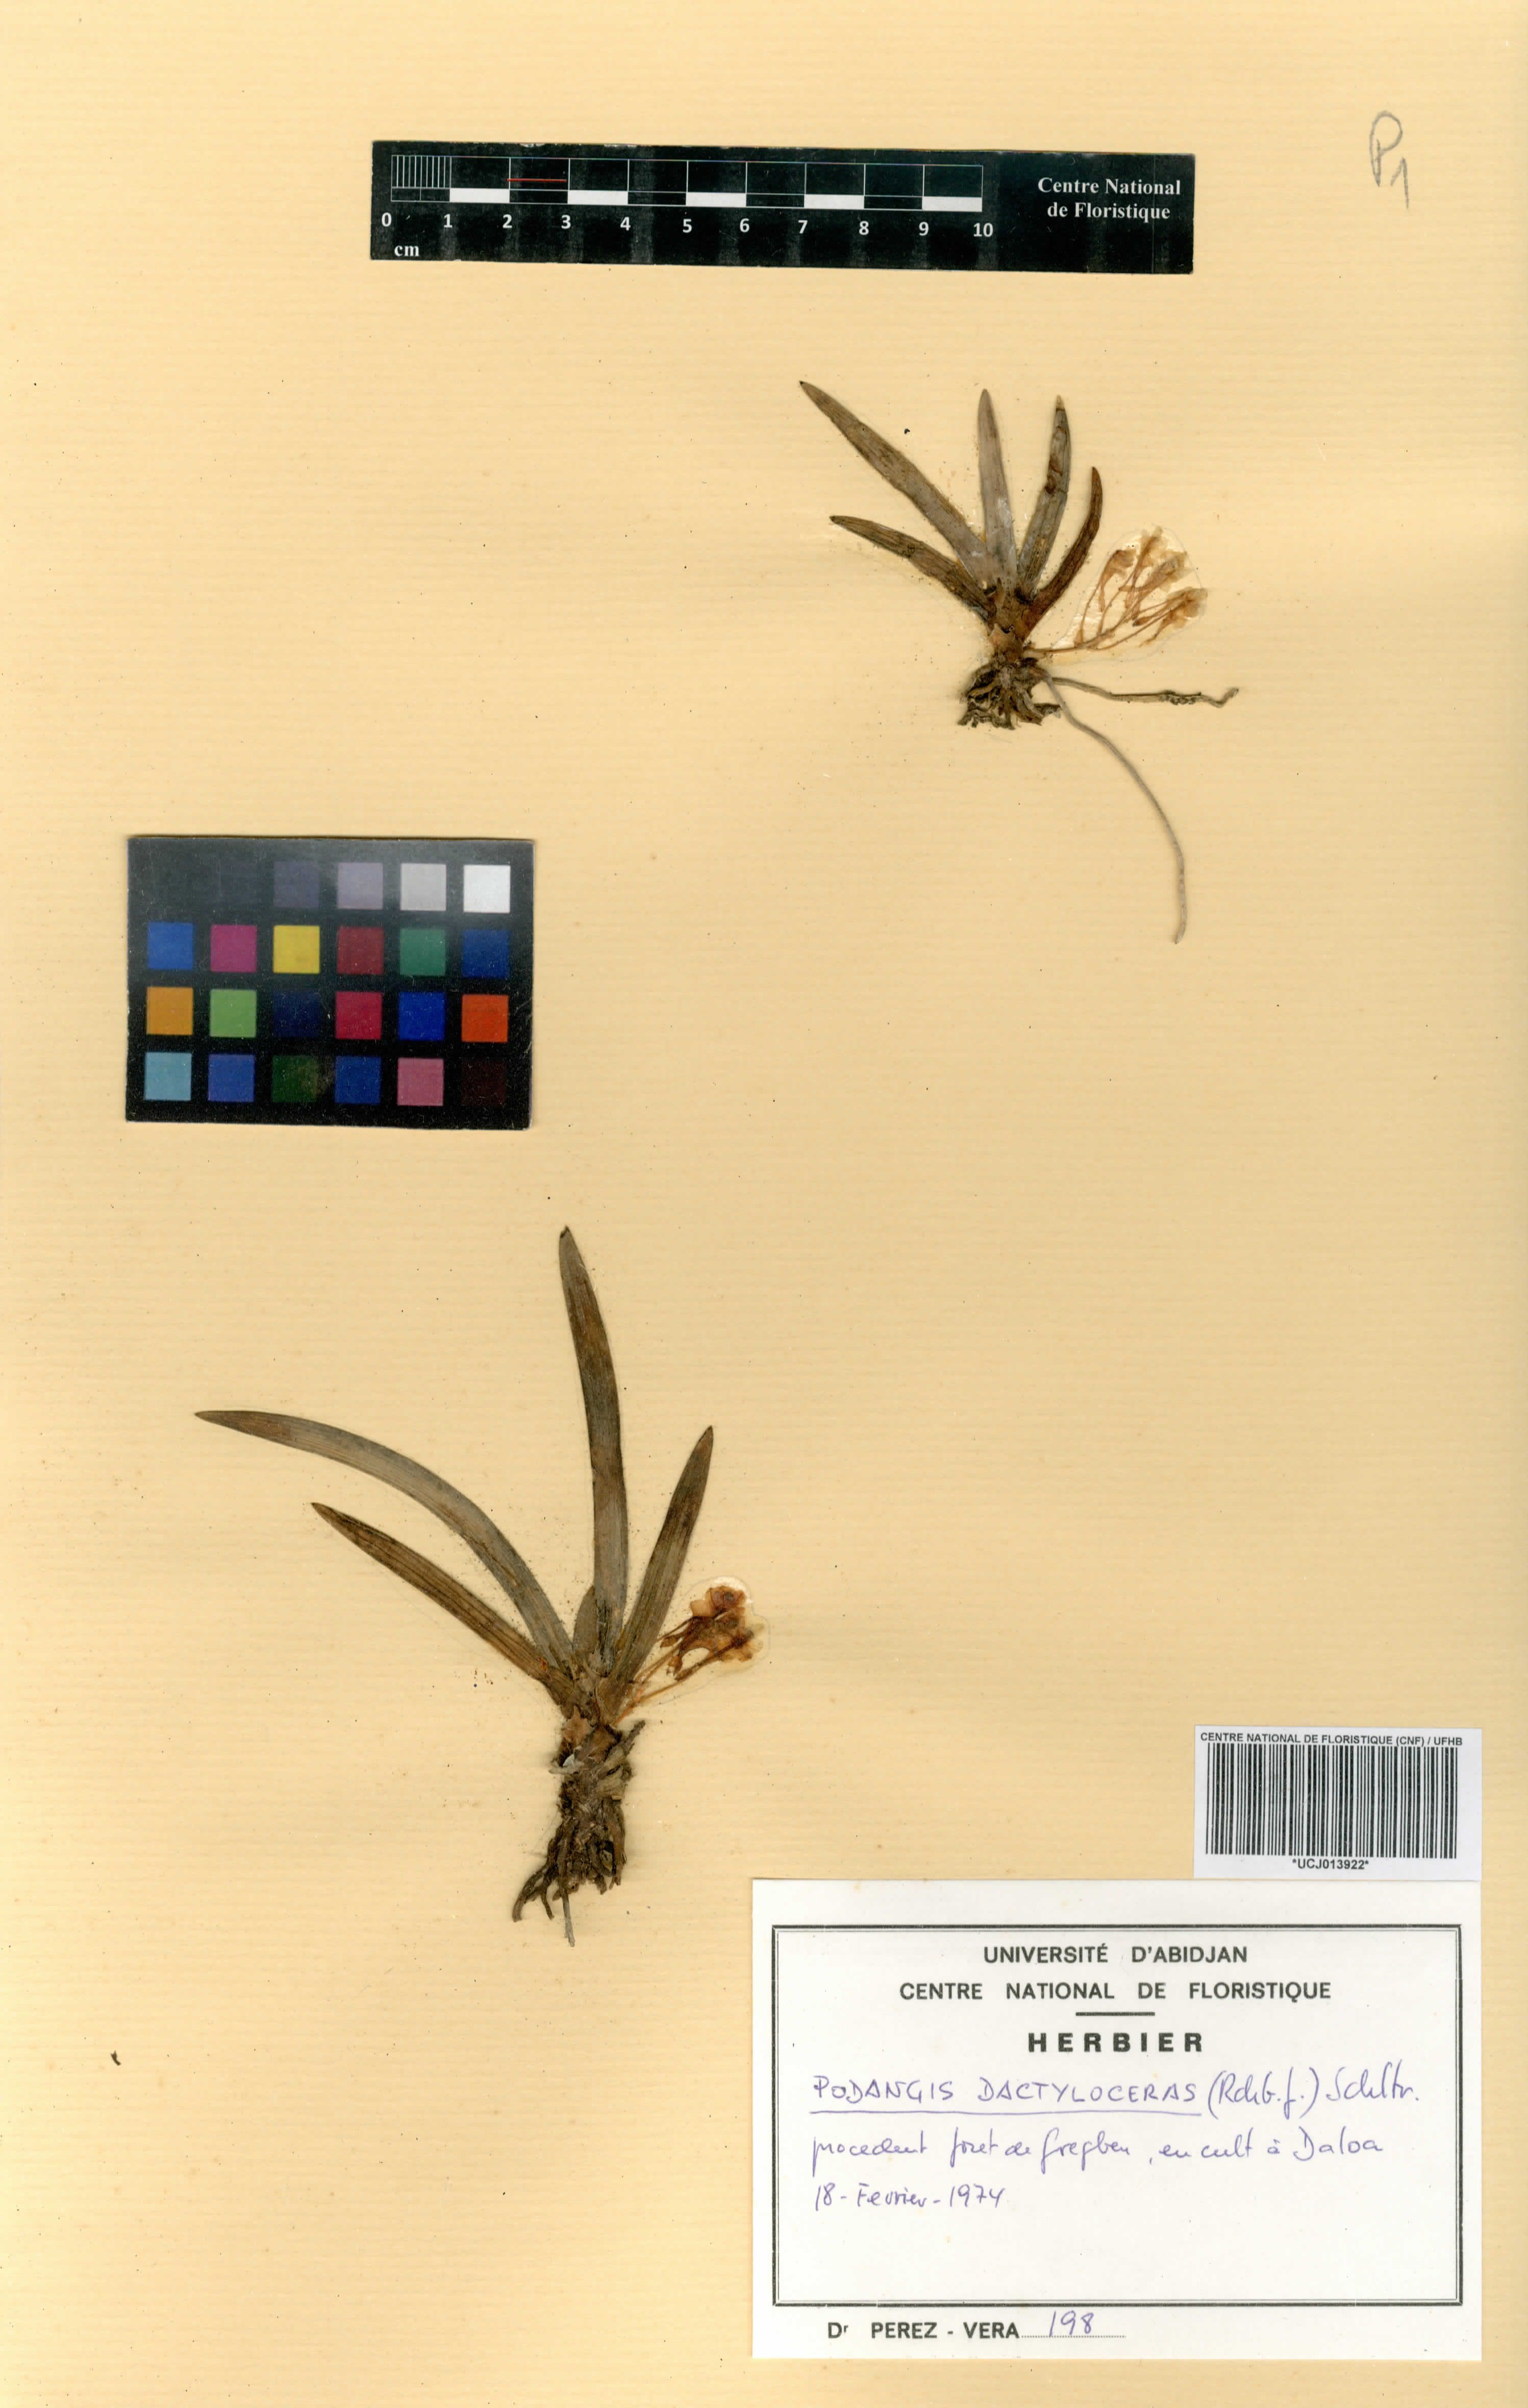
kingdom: Plantae
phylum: Tracheophyta
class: Liliopsida
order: Asparagales
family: Orchidaceae
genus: Podangis
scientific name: Podangis dactyloceras
